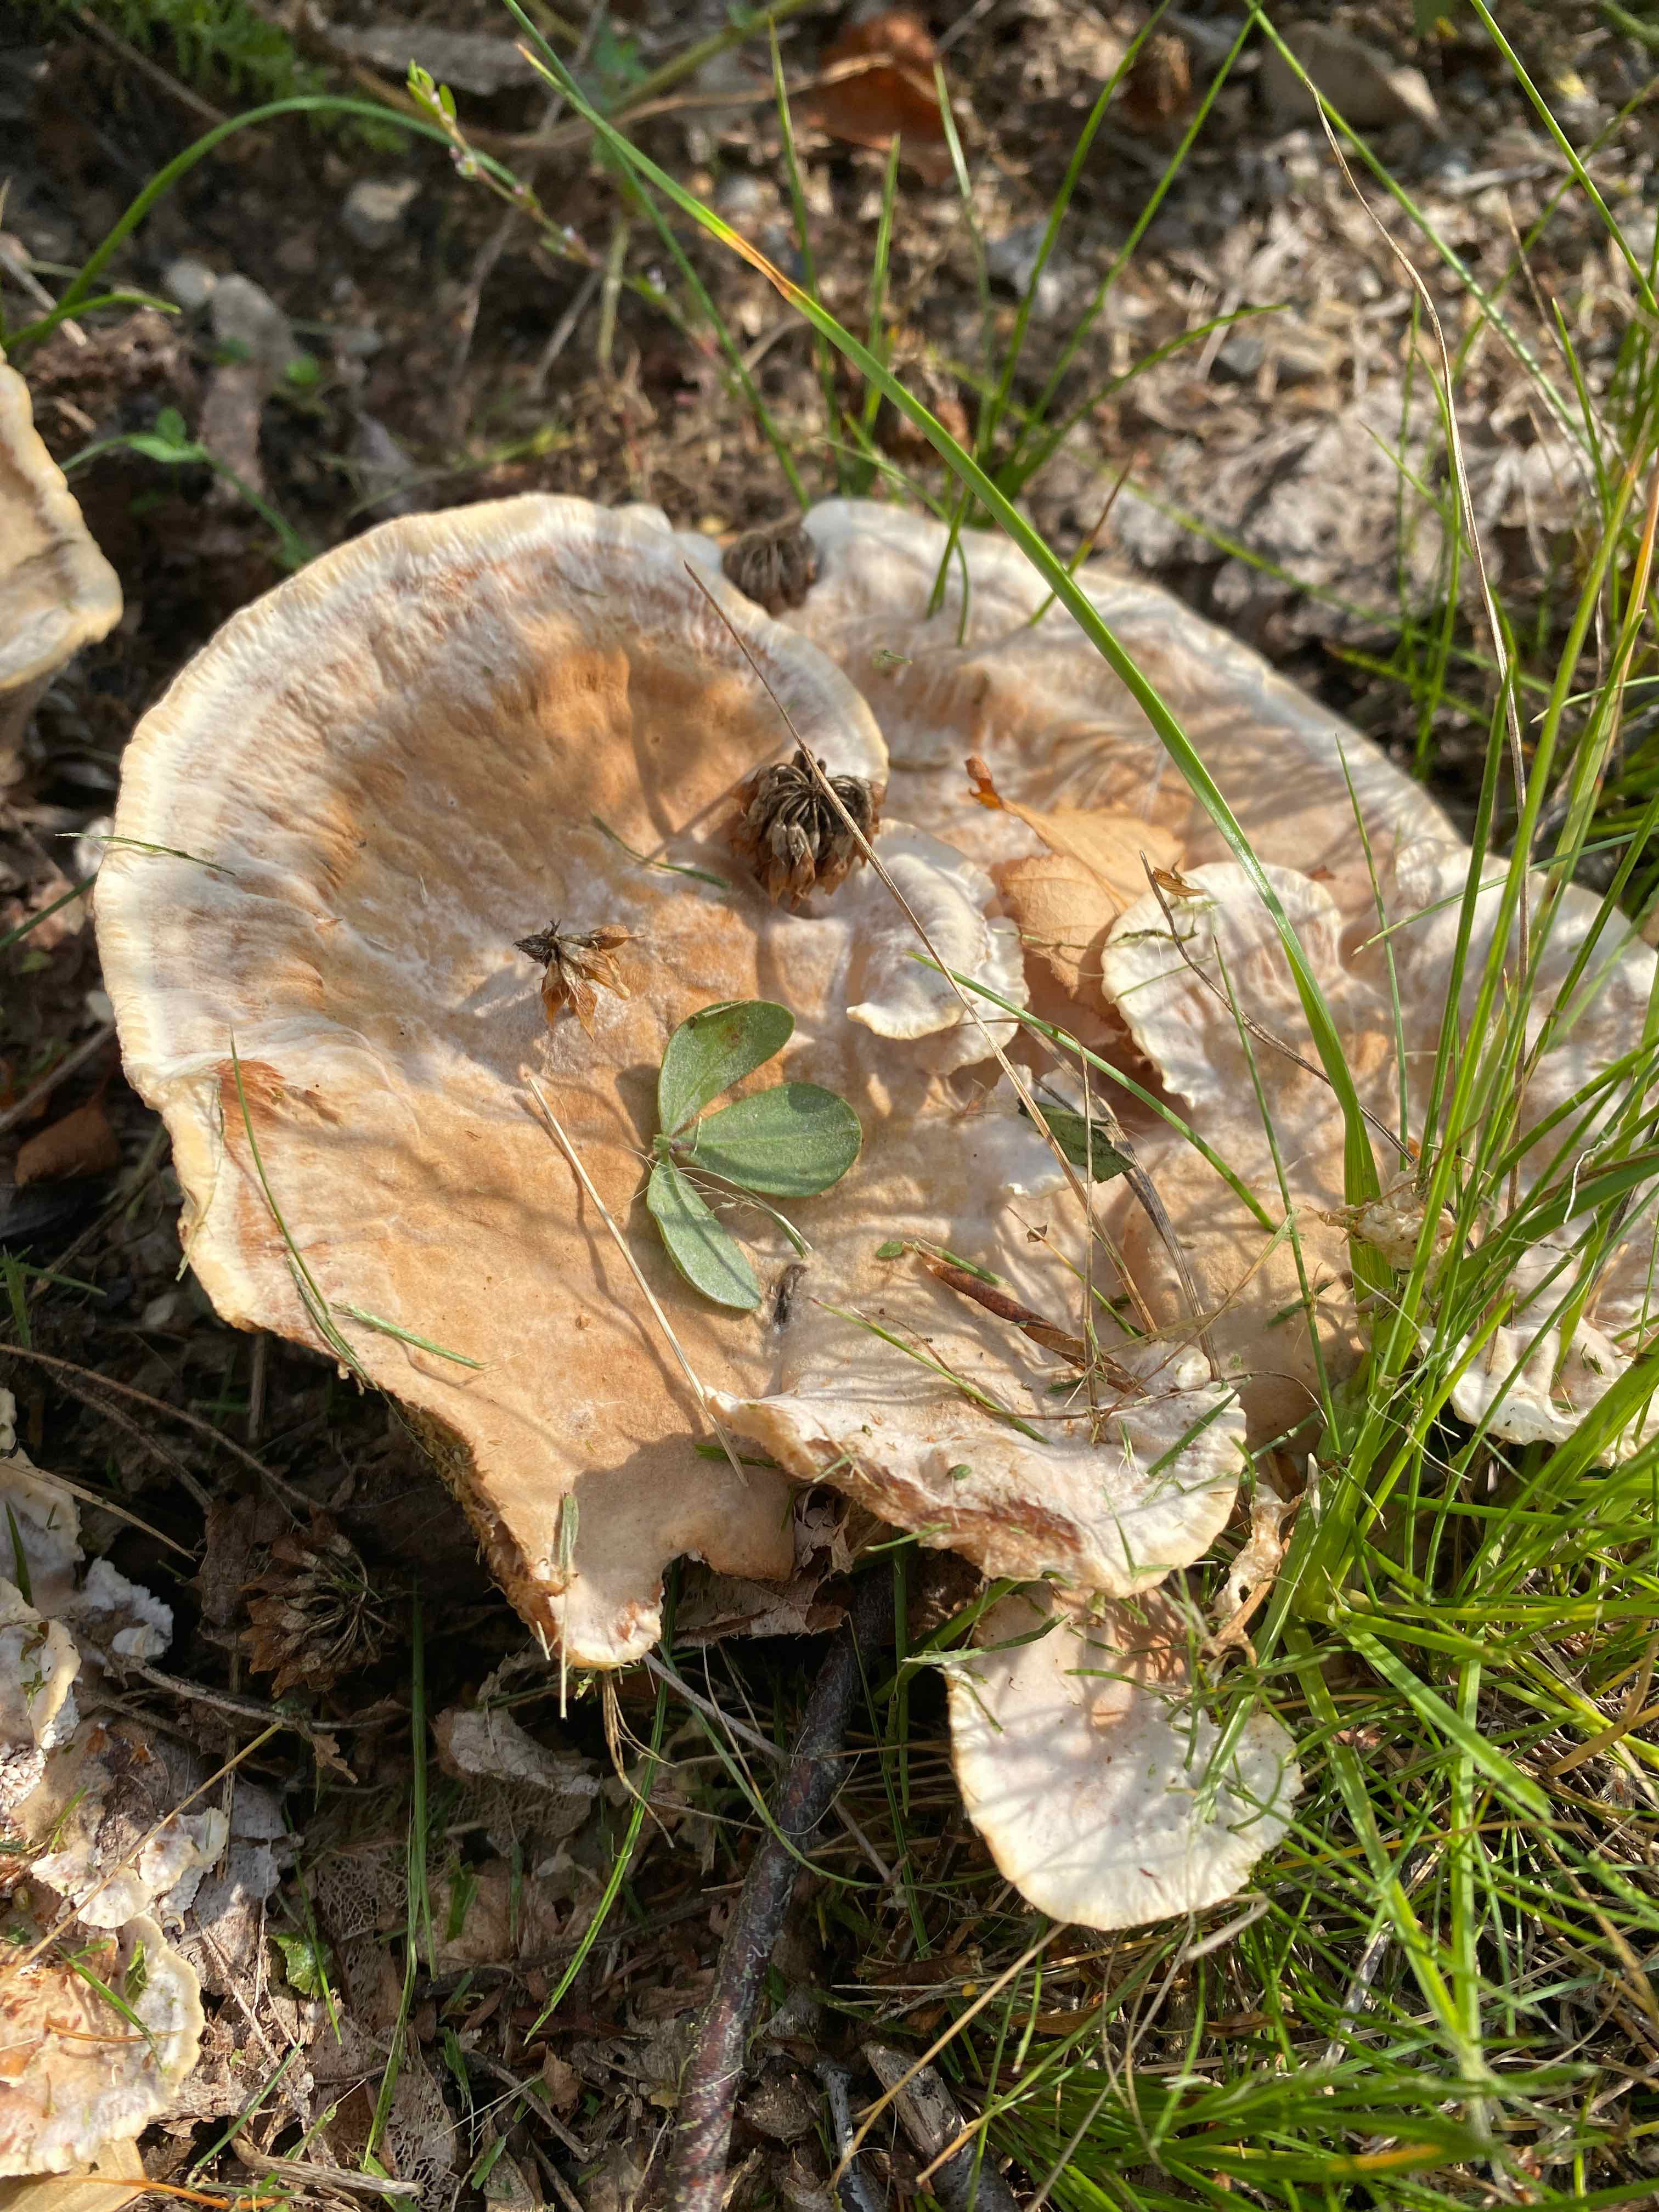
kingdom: Fungi
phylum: Basidiomycota
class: Agaricomycetes
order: Polyporales
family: Podoscyphaceae
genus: Abortiporus
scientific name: Abortiporus biennis
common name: rødmende pjalteporesvamp
